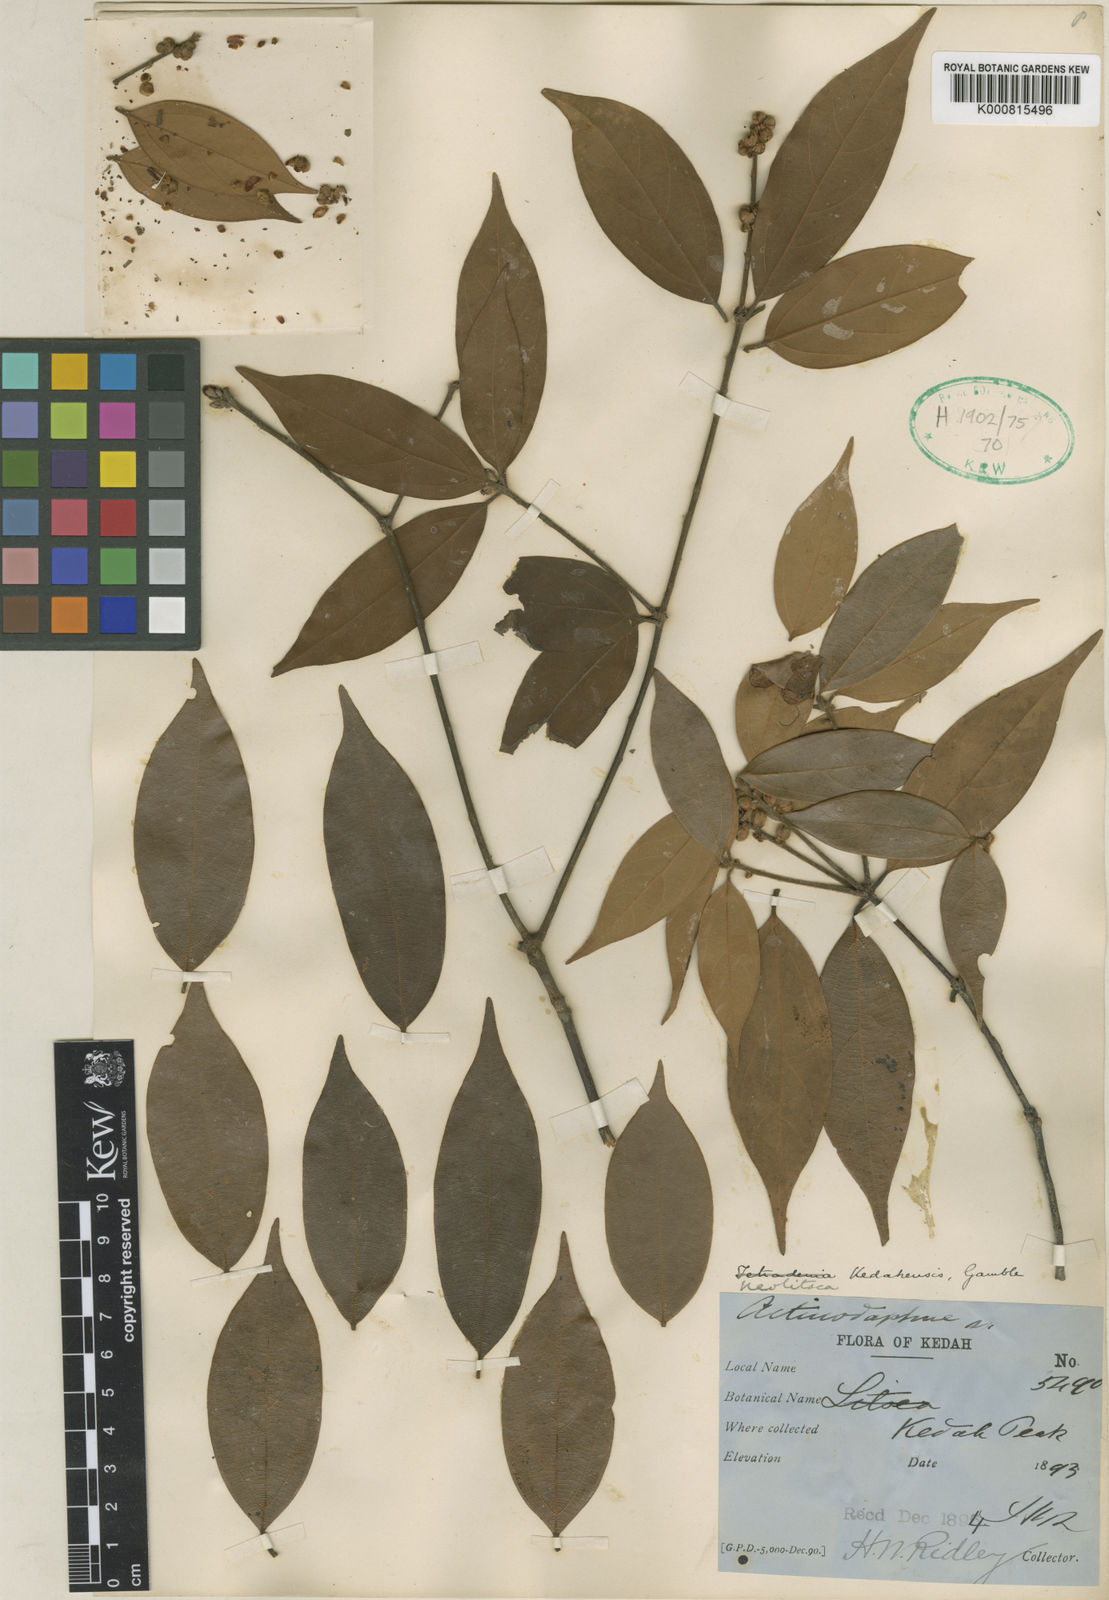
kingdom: Plantae
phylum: Tracheophyta
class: Magnoliopsida
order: Laurales
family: Lauraceae
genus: Neolitsea
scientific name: Neolitsea kedahensis
